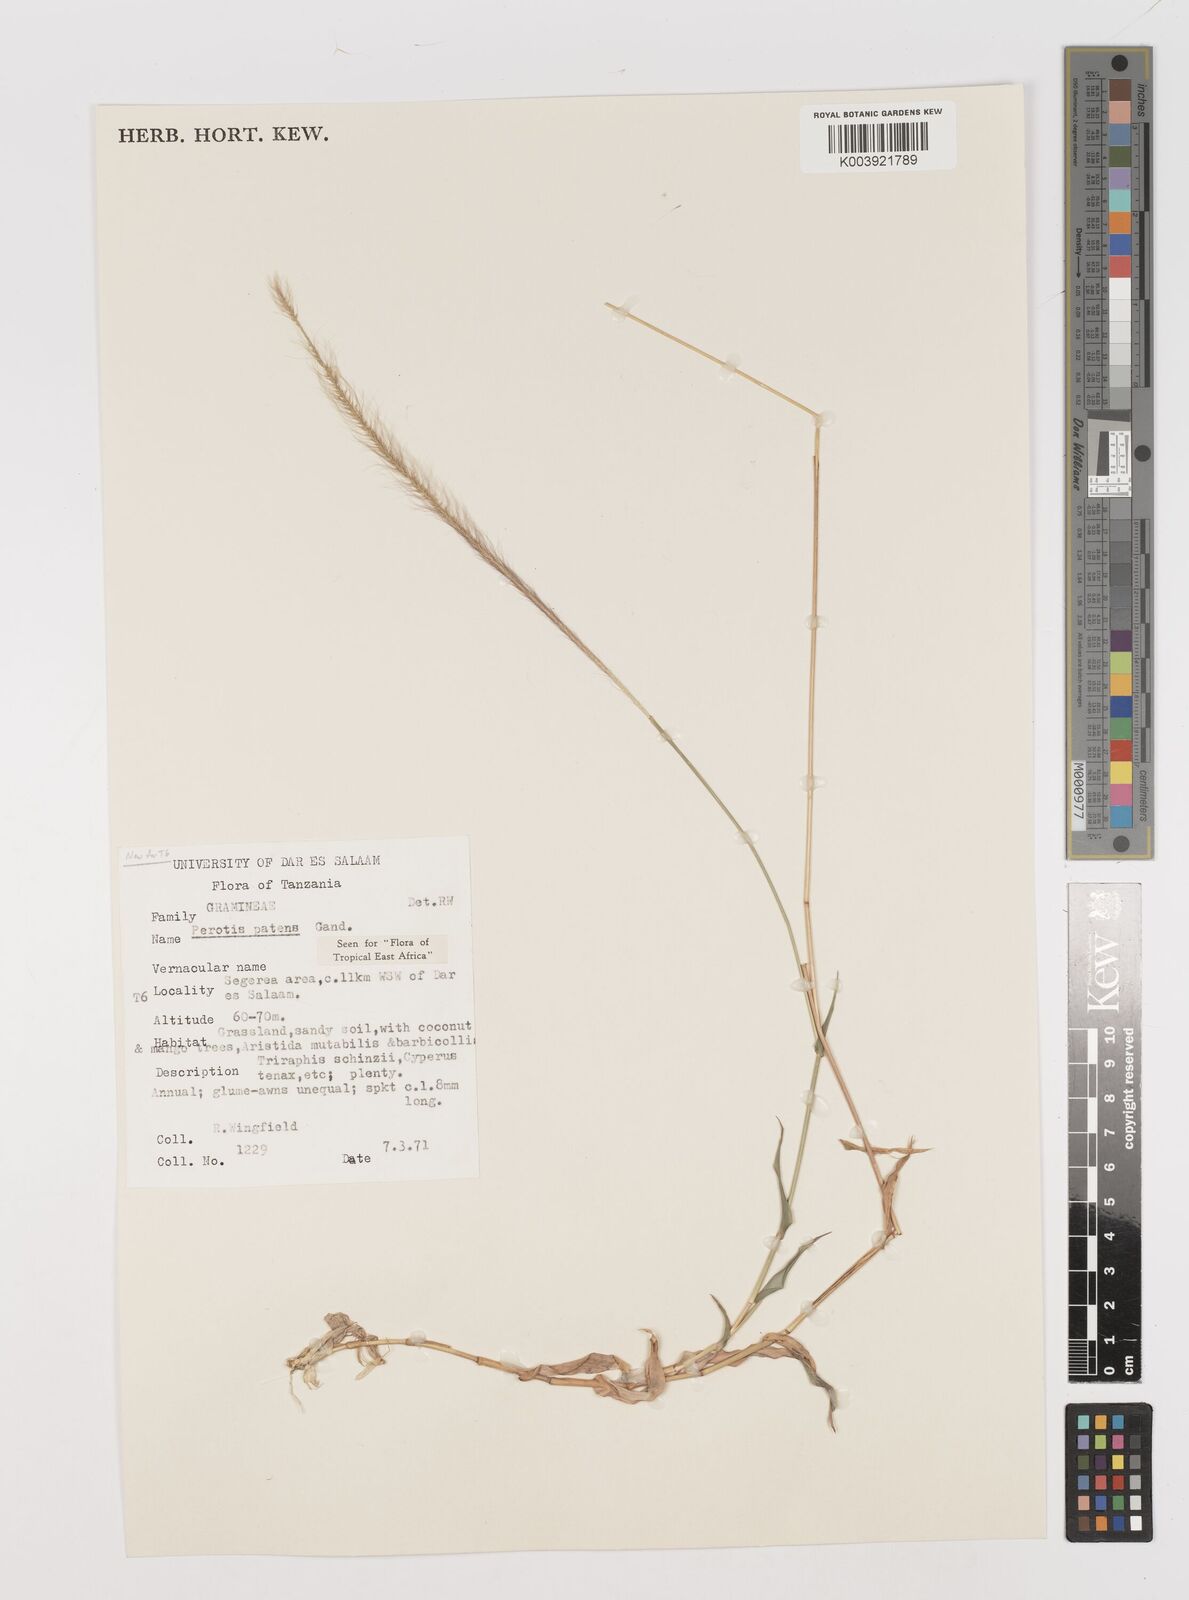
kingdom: Plantae
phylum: Tracheophyta
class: Liliopsida
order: Poales
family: Poaceae
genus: Perotis
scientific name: Perotis patens
